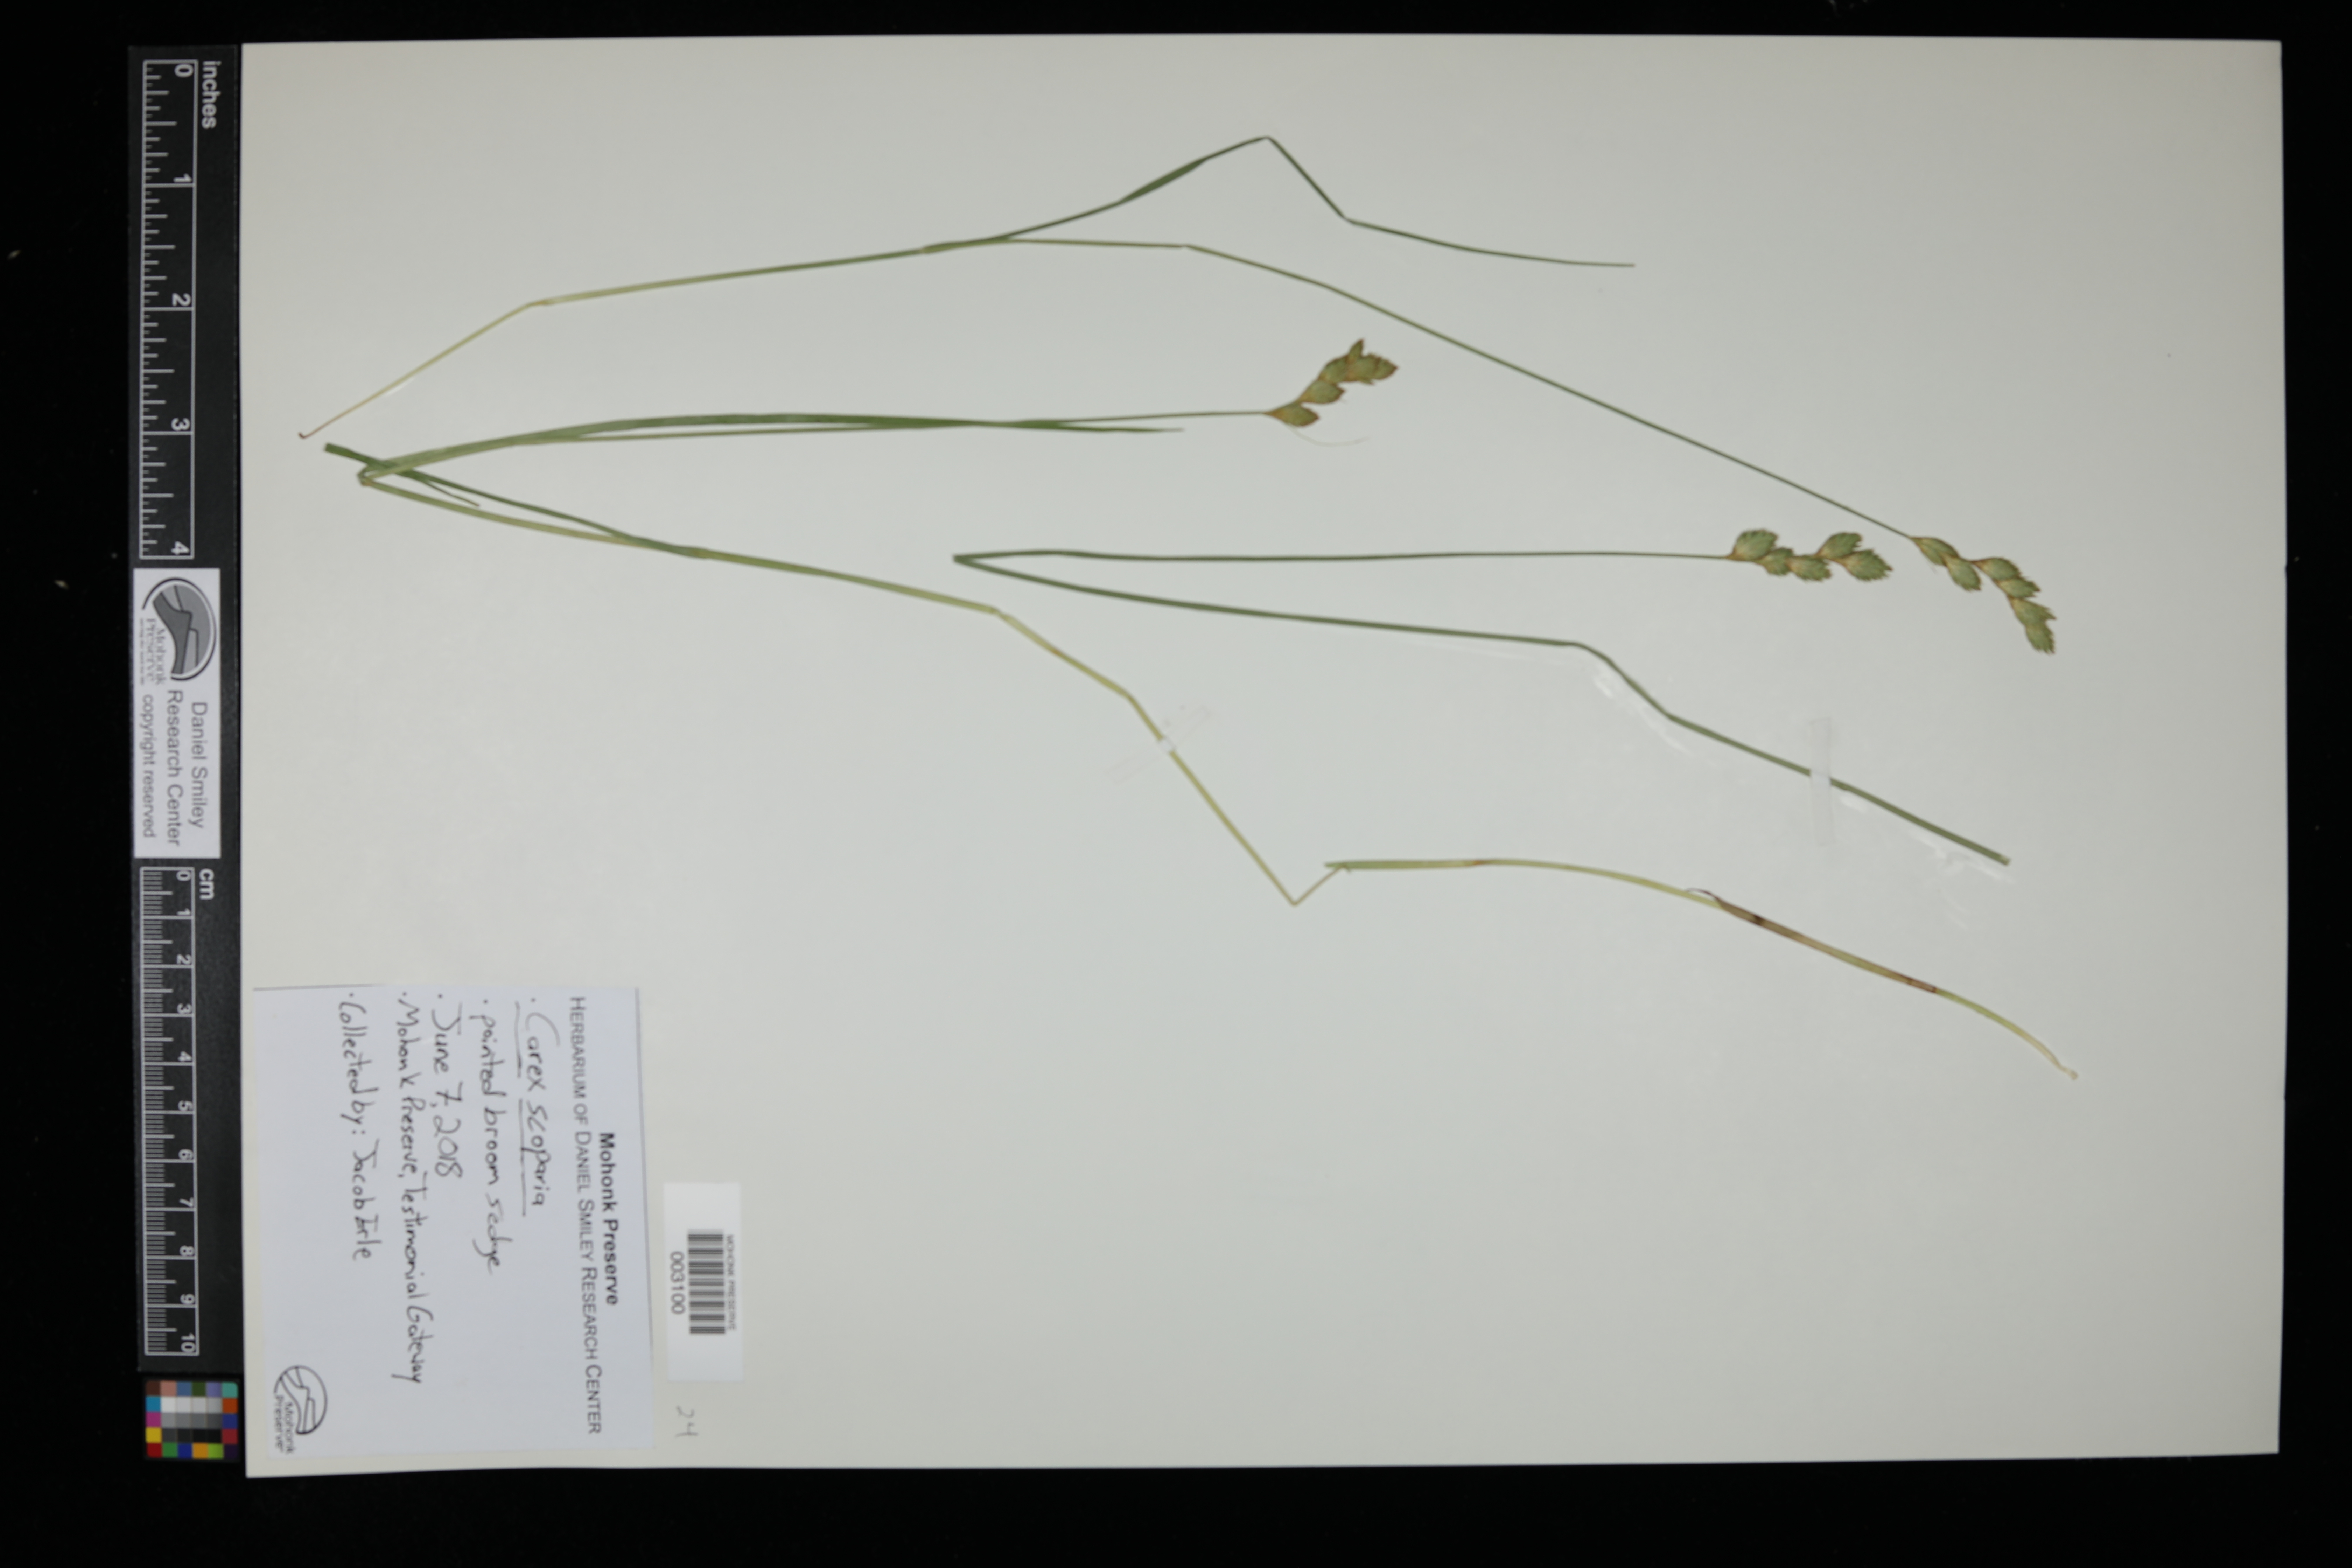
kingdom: Plantae
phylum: Tracheophyta
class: Liliopsida
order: Poales
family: Cyperaceae
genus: Carex
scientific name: Carex scoparia
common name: Broom sedge
